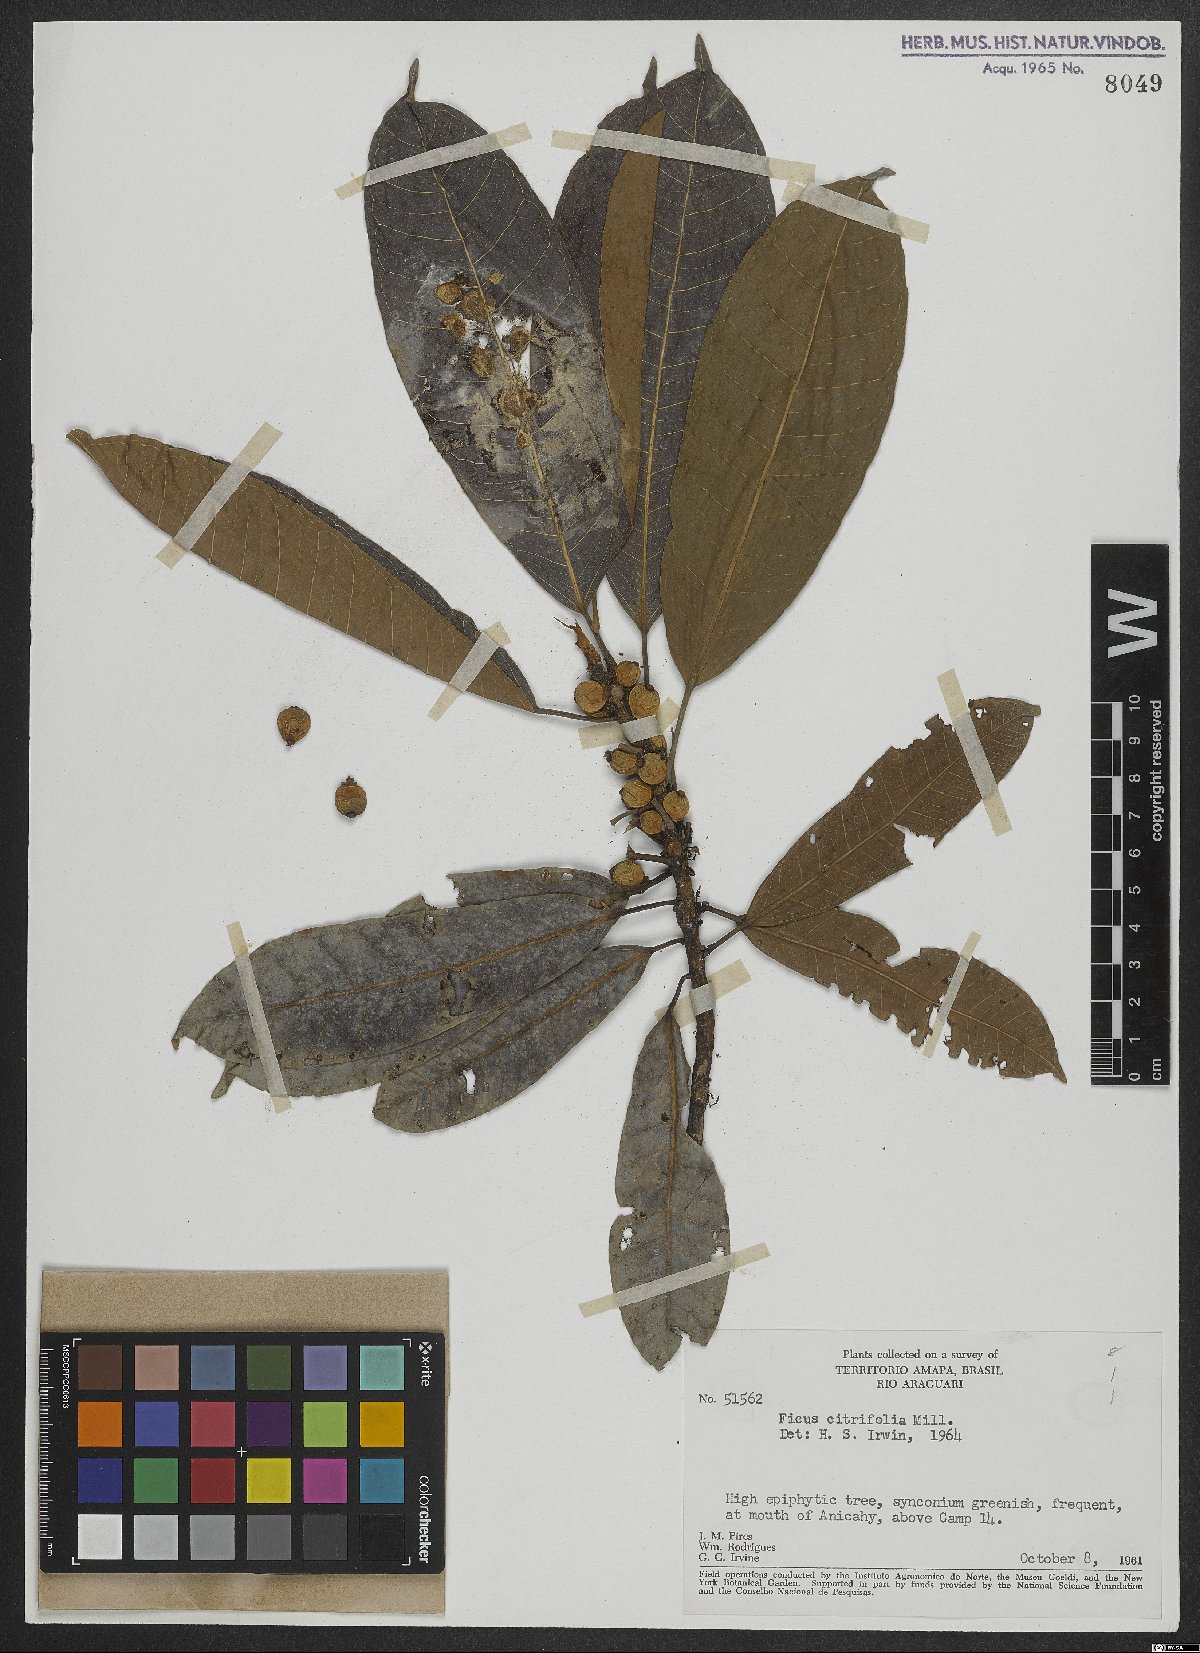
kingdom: Plantae
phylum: Tracheophyta
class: Magnoliopsida
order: Rosales
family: Moraceae
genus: Ficus
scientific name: Ficus citrifolia
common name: Strangler fig
